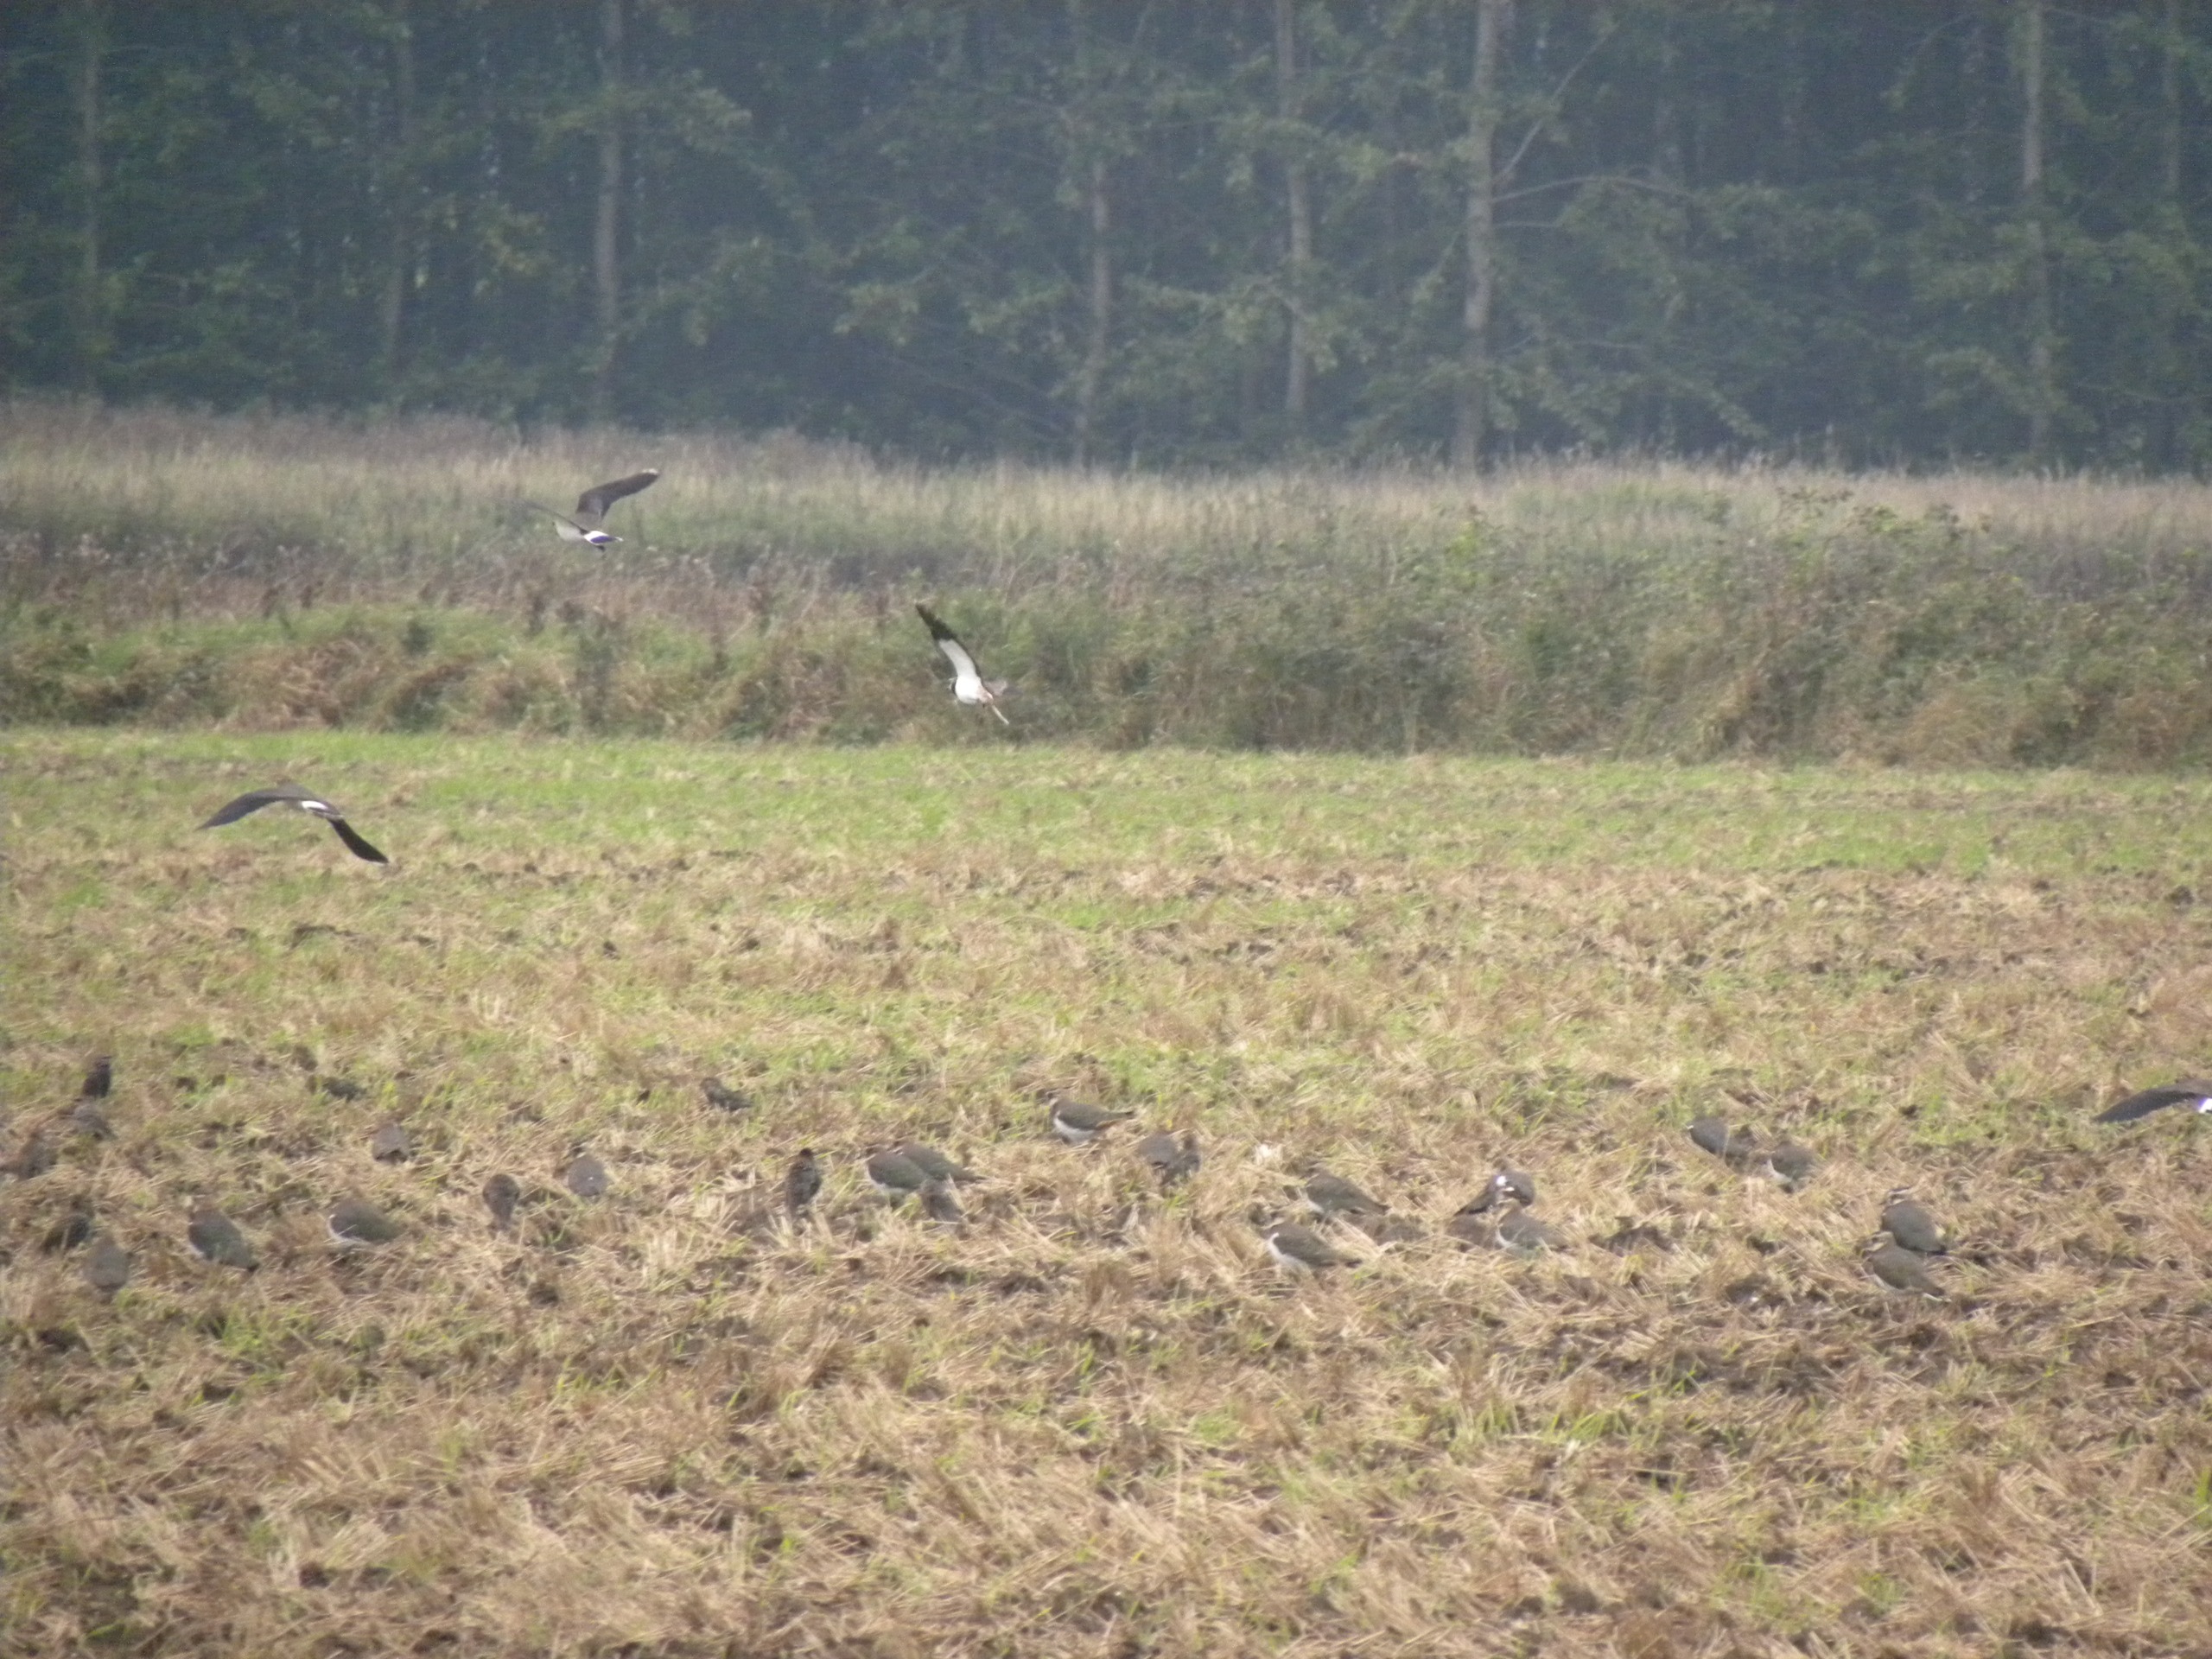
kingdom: Animalia
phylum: Chordata
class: Aves
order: Charadriiformes
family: Charadriidae
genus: Vanellus
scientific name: Vanellus vanellus
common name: Vibe
